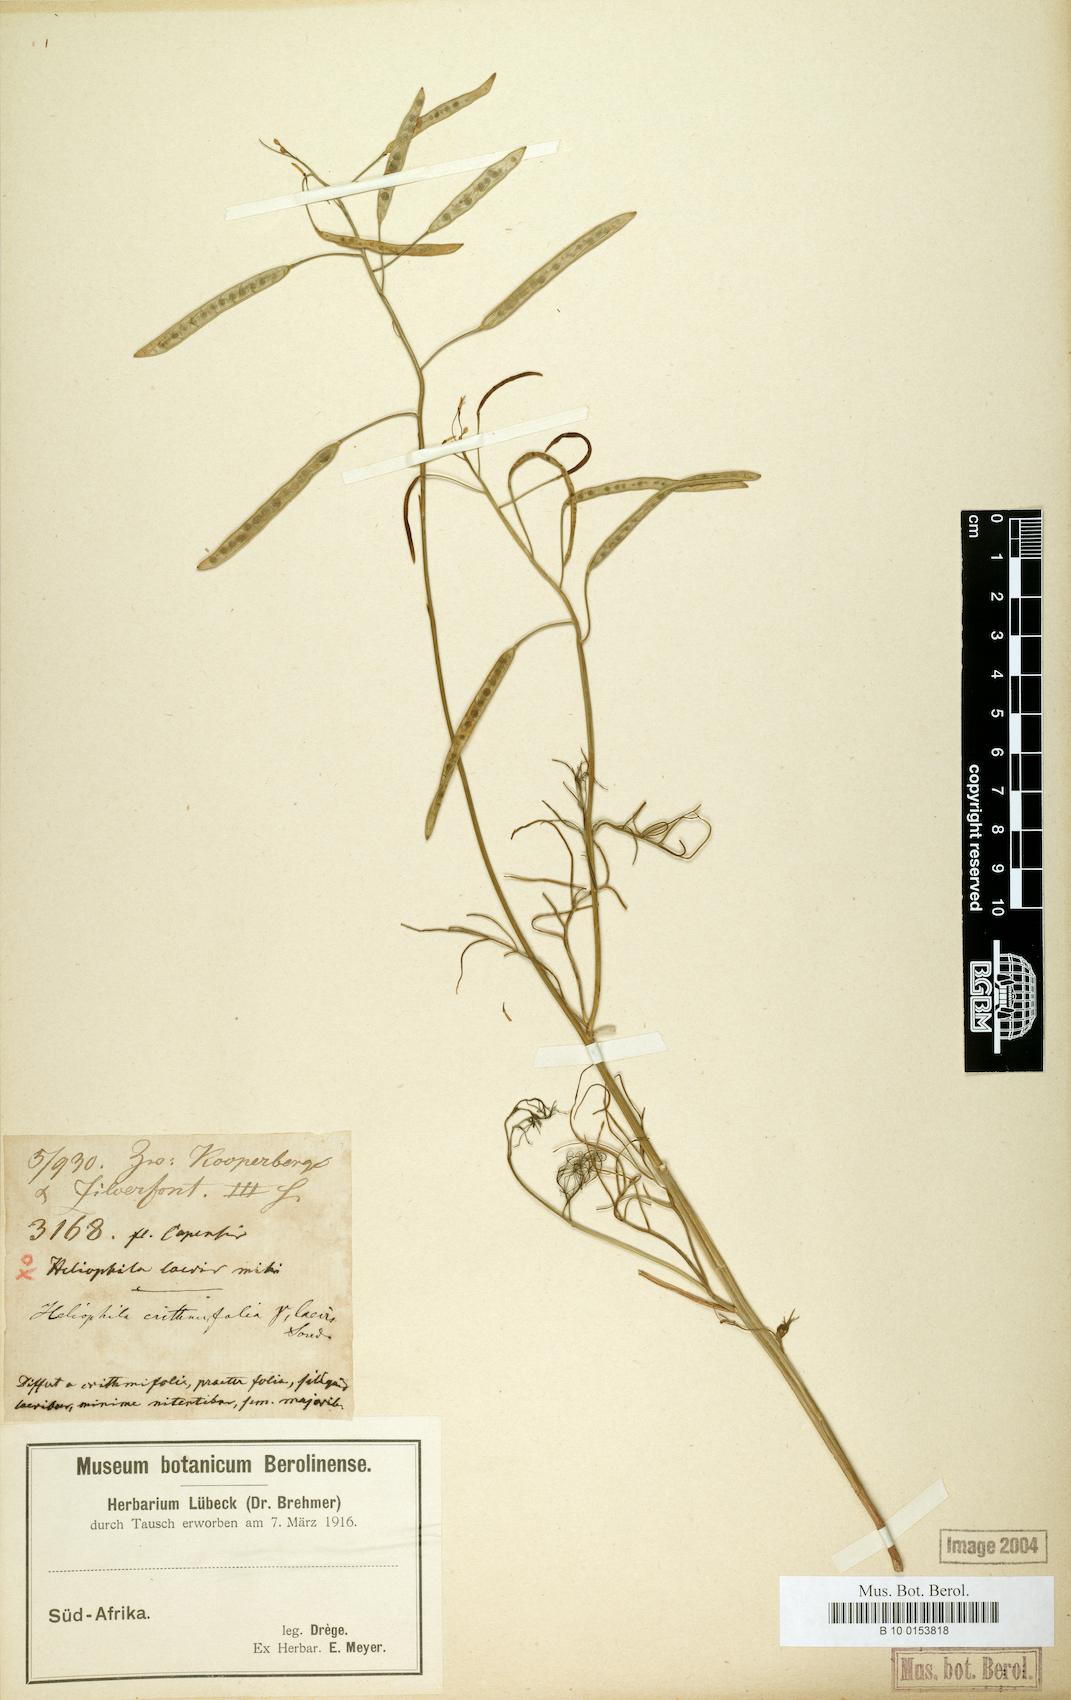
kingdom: Plantae
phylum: Tracheophyta
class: Magnoliopsida
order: Brassicales
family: Brassicaceae
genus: Heliophila
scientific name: Heliophila crithmifolia
